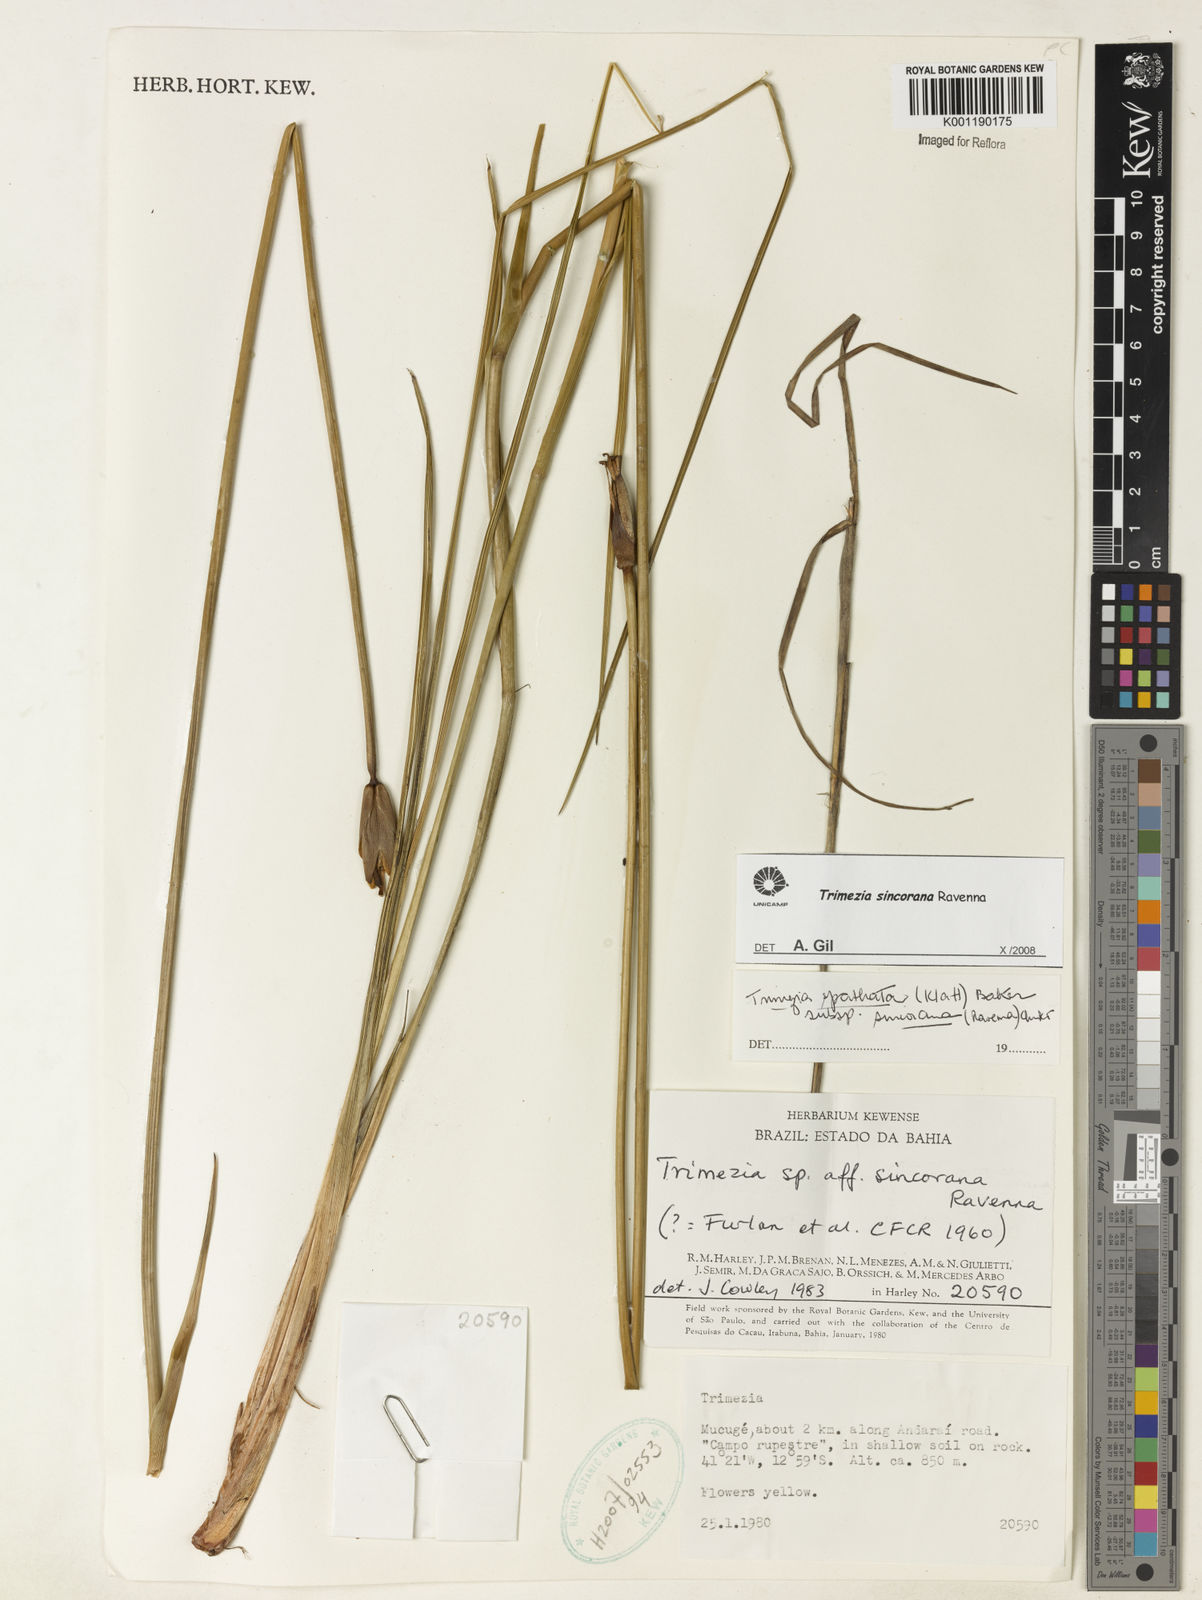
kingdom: Plantae
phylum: Tracheophyta
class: Liliopsida
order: Asparagales
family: Iridaceae
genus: Trimezia
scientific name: Trimezia spathata
